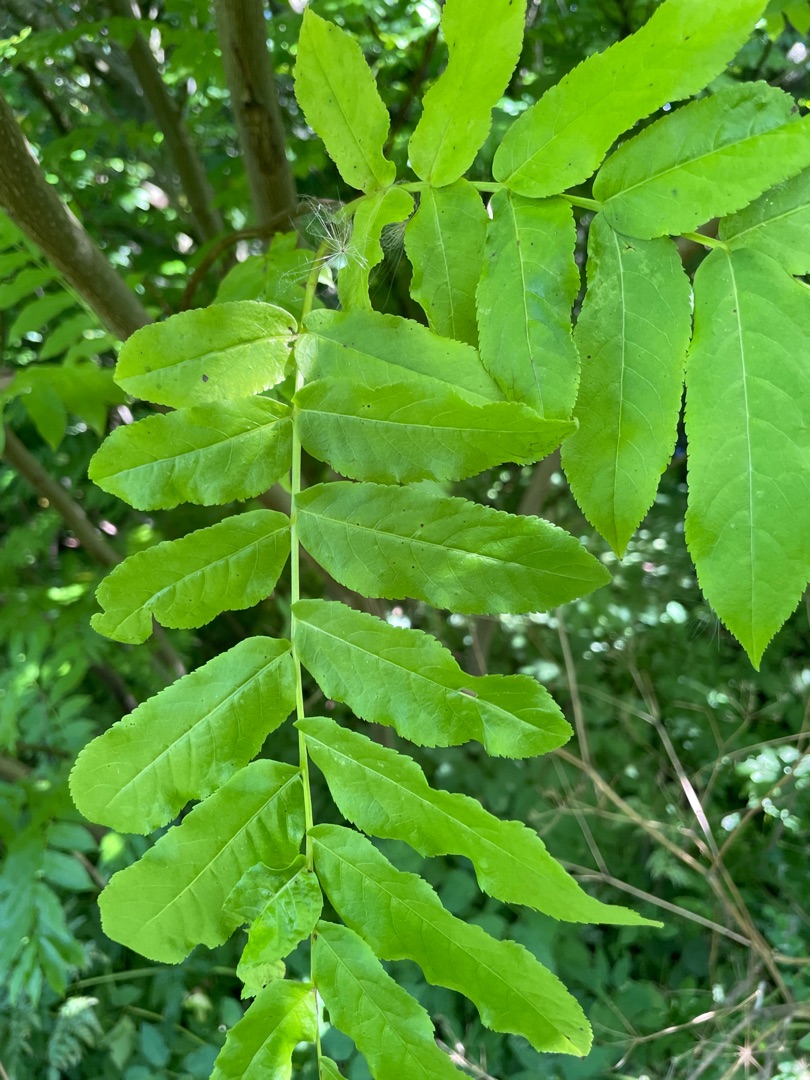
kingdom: Plantae
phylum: Tracheophyta
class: Magnoliopsida
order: Fagales
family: Juglandaceae
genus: Pterocarya
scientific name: Pterocarya fraxinifolia
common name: Kaukasisk vingevalnød
